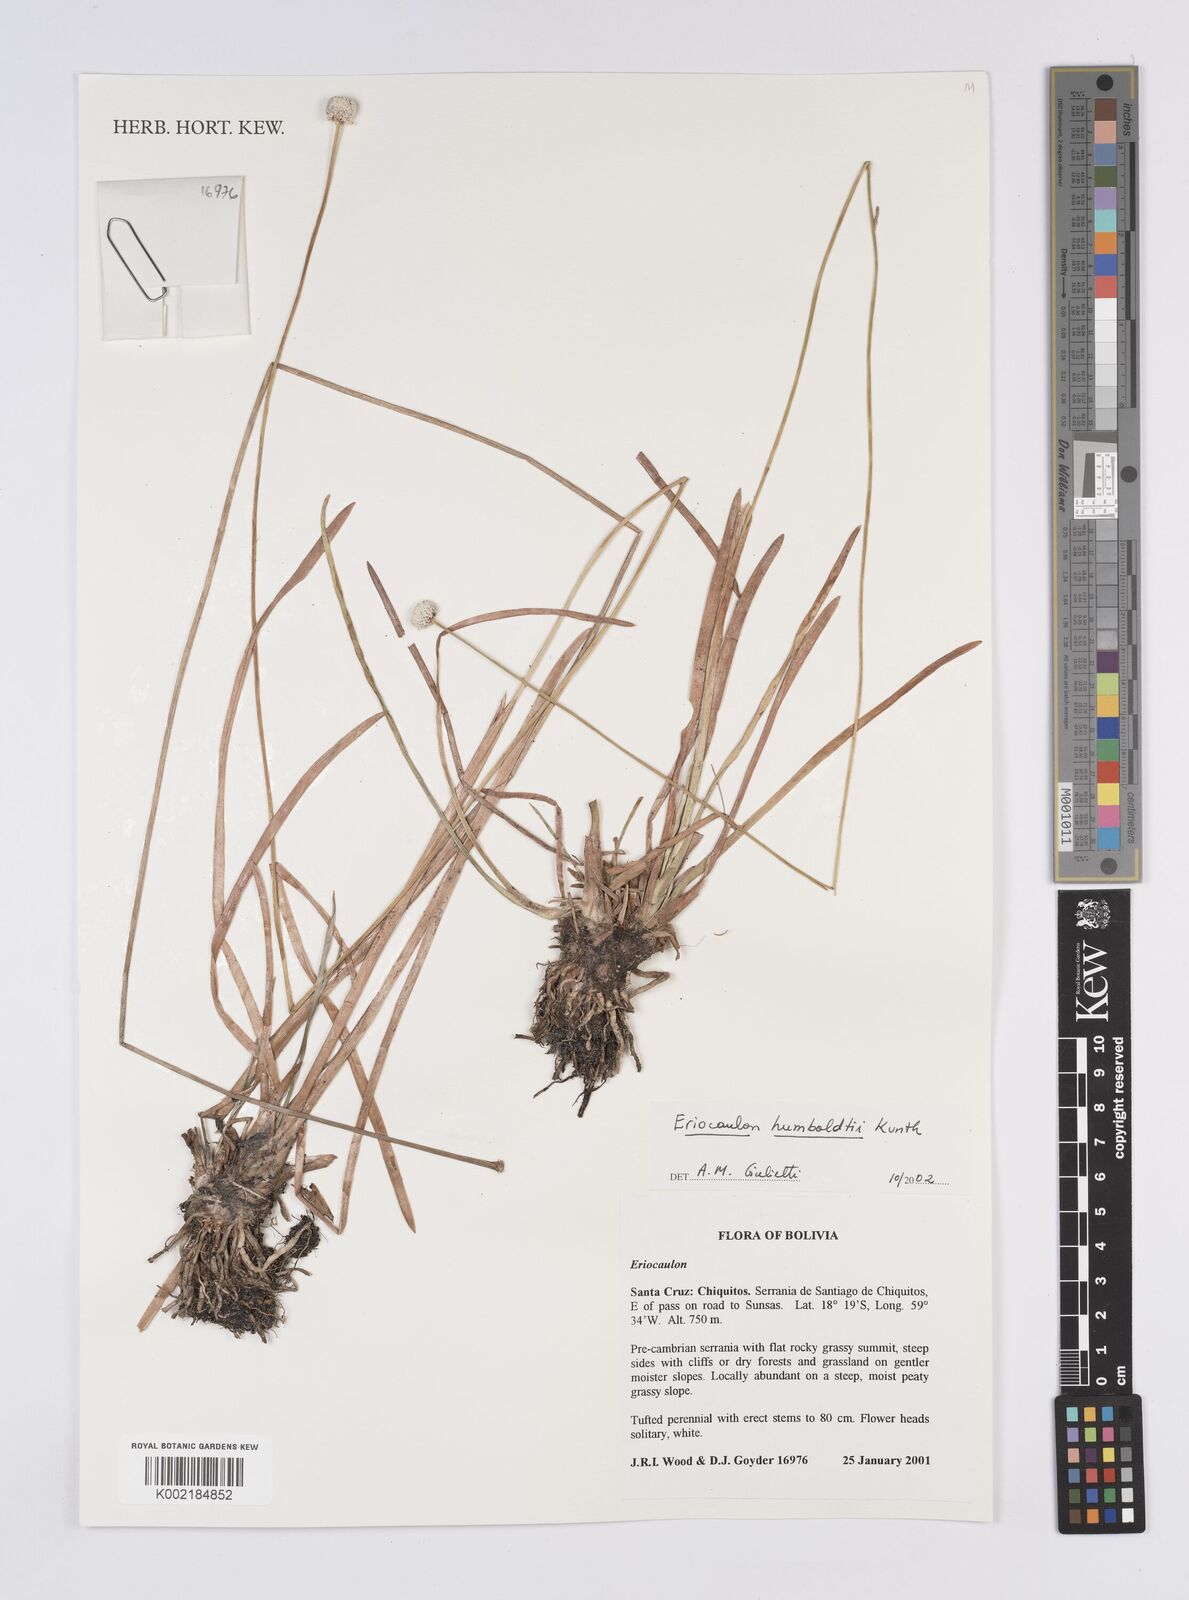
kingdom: Plantae
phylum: Tracheophyta
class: Liliopsida
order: Poales
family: Eriocaulaceae
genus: Eriocaulon
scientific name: Eriocaulon humboldtii
